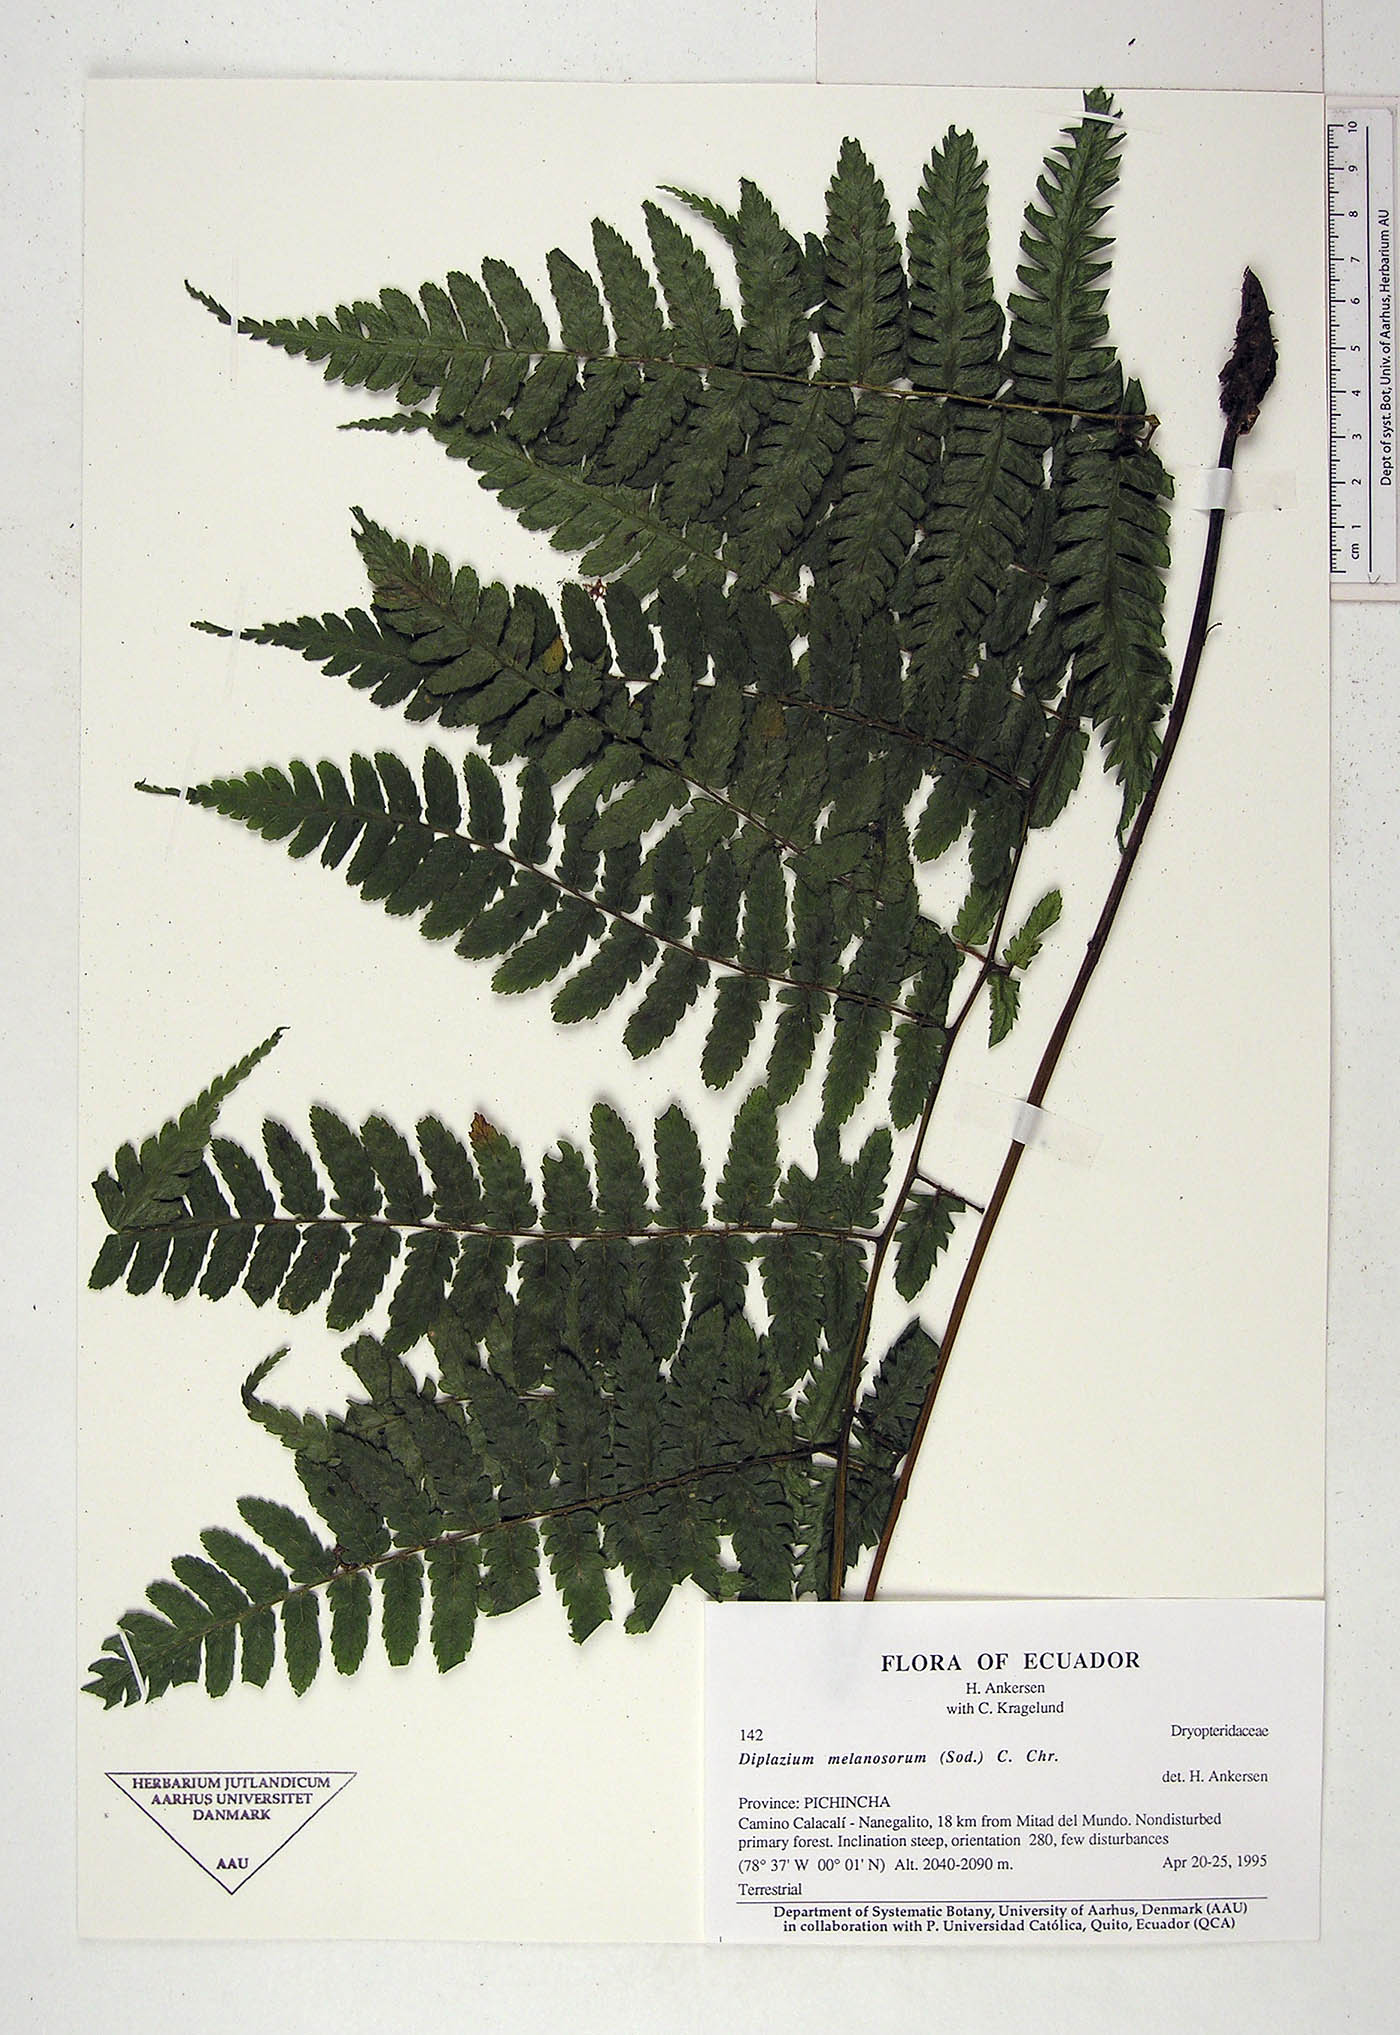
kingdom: Plantae
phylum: Tracheophyta
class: Polypodiopsida
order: Polypodiales
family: Athyriaceae
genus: Diplazium
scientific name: Diplazium melanosorum
